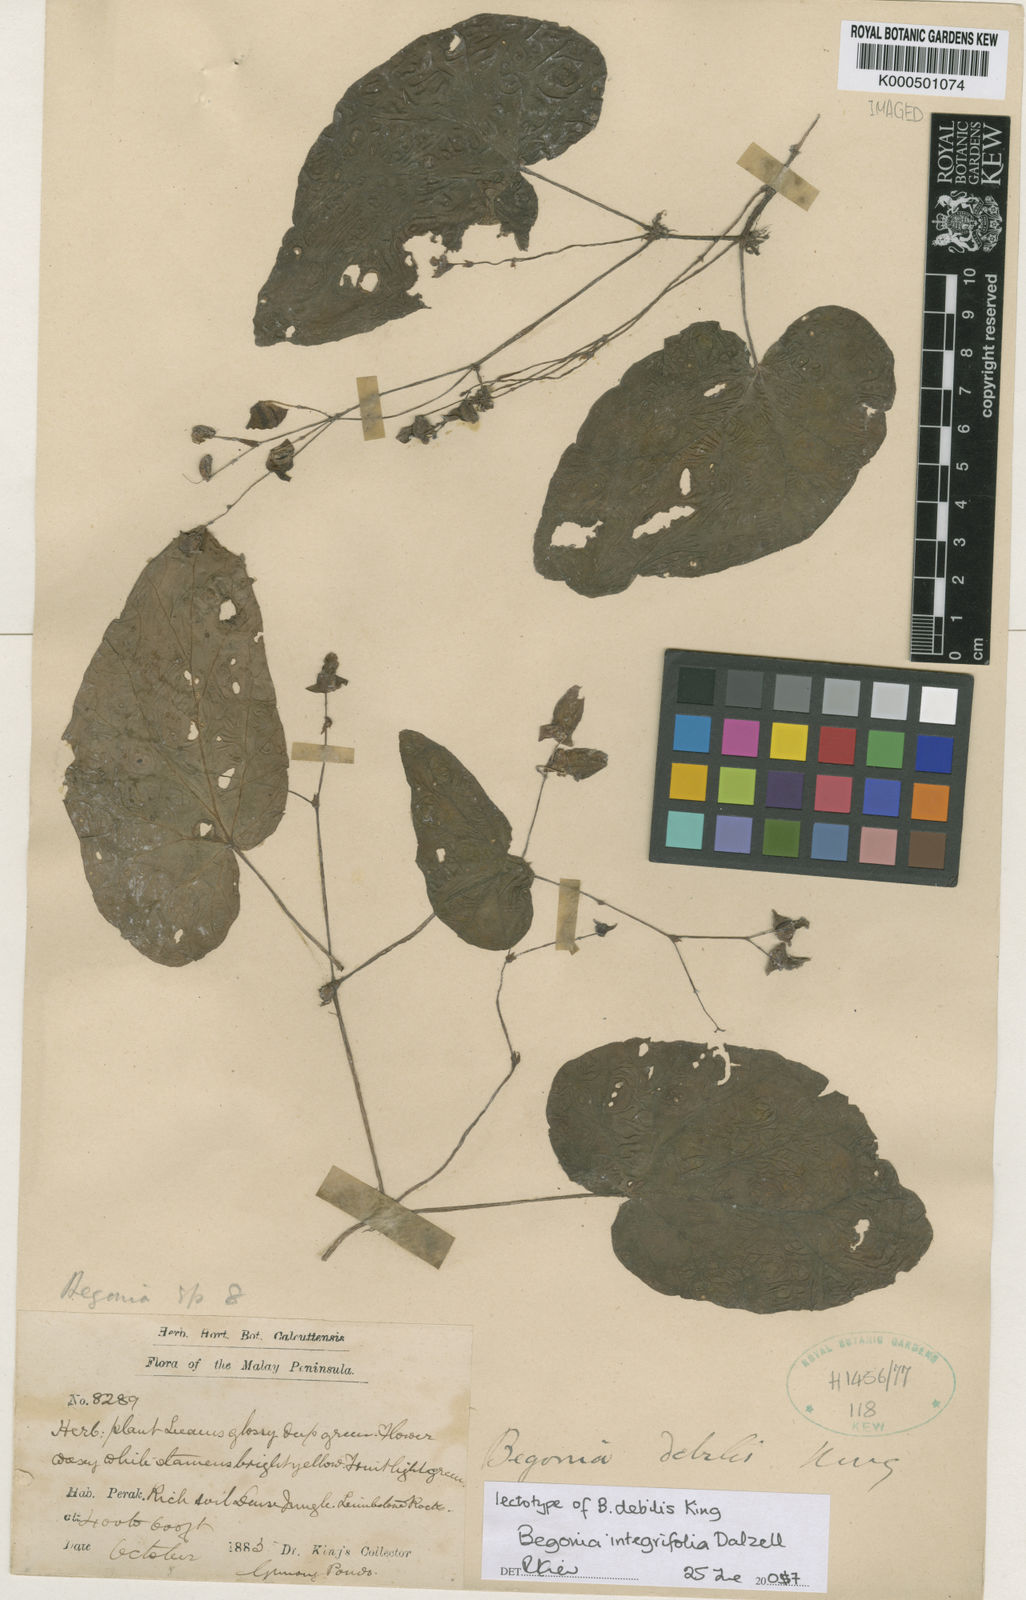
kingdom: Plantae
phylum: Tracheophyta
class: Magnoliopsida
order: Cucurbitales
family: Begoniaceae
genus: Begonia
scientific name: Begonia integrifolia
